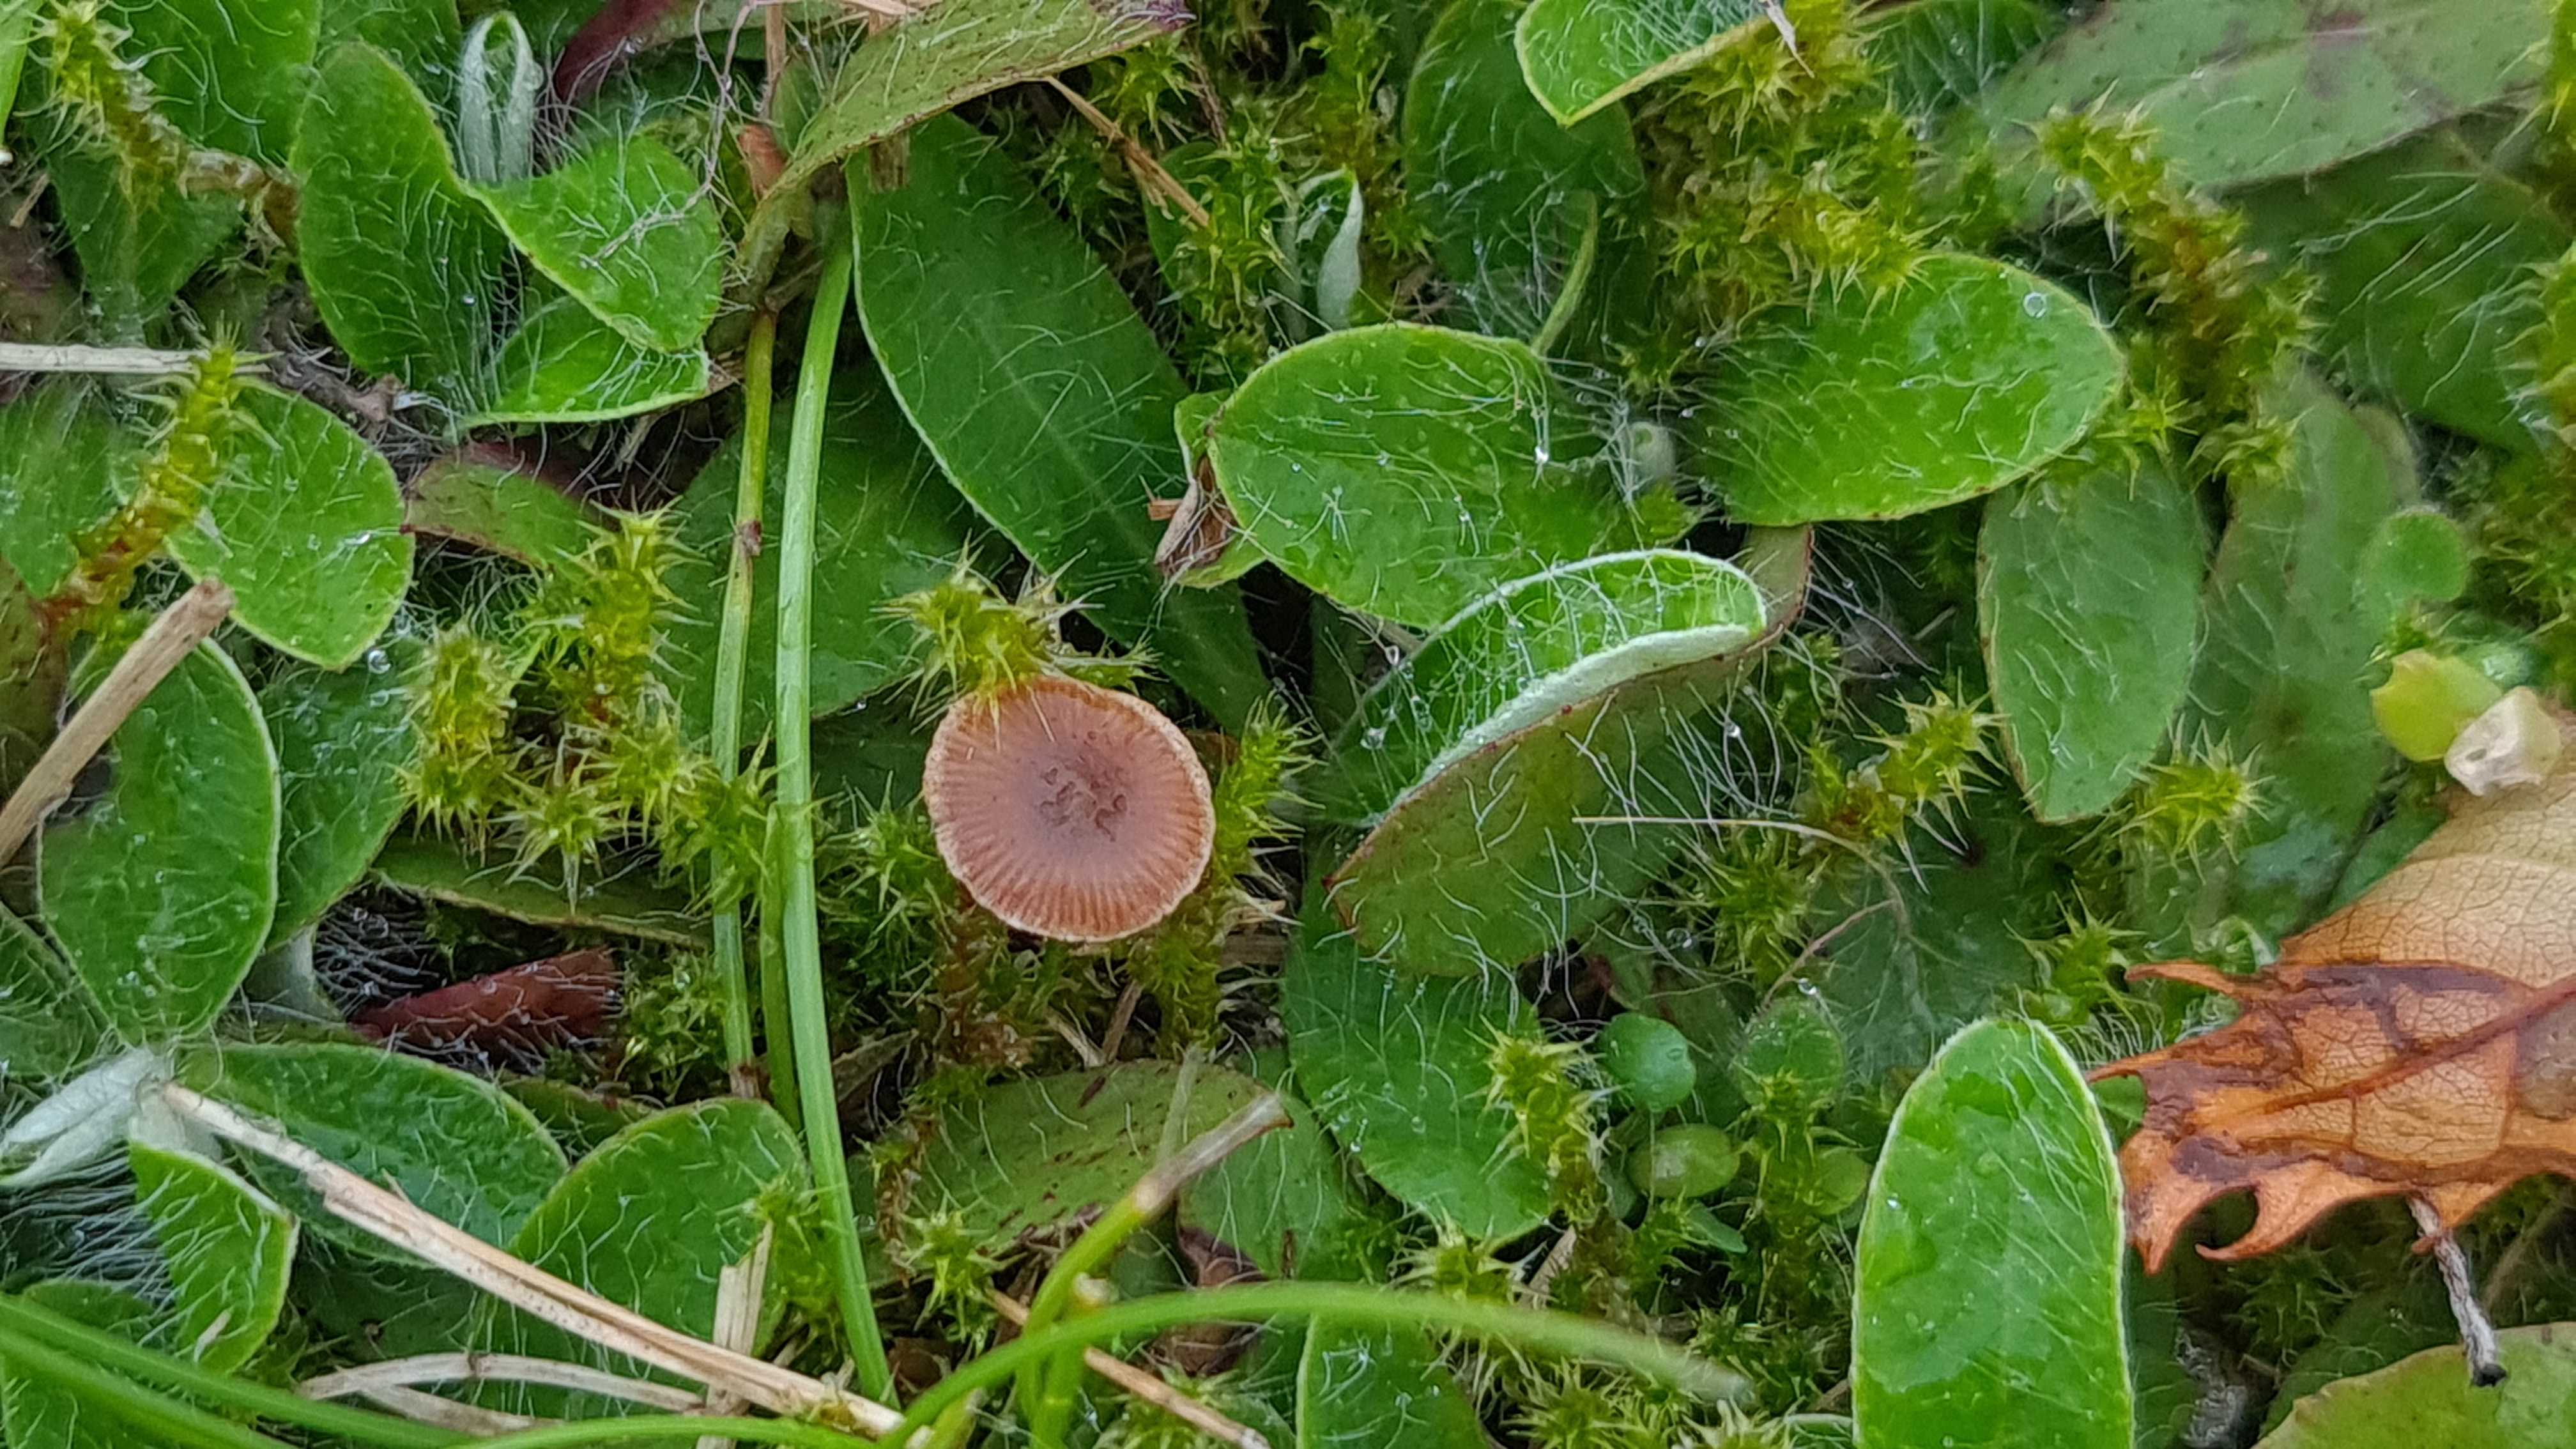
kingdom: Fungi
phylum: Basidiomycota
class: Agaricomycetes
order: Agaricales
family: Strophariaceae
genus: Deconica
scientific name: Deconica
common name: stråhat
